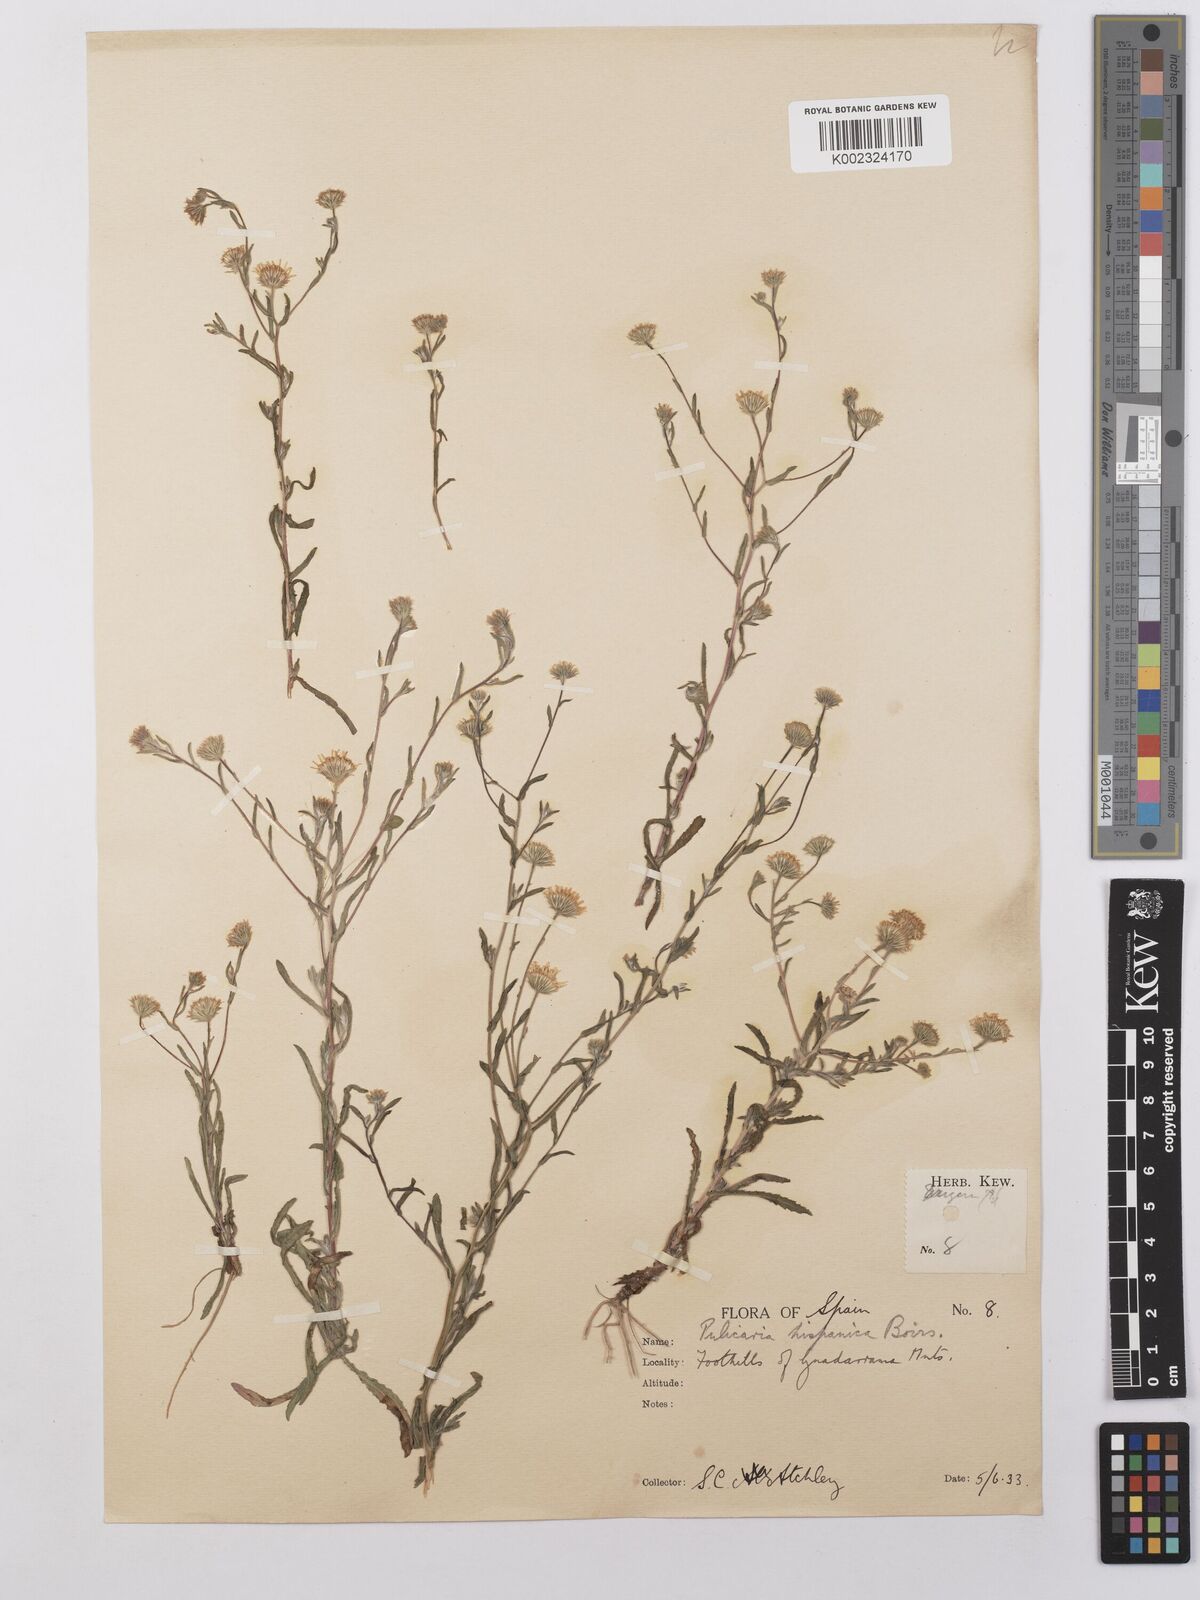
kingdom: Plantae
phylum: Tracheophyta
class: Magnoliopsida
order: Asterales
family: Asteraceae
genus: Pulicaria
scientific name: Pulicaria arabica
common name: Ladies' false fleabane
